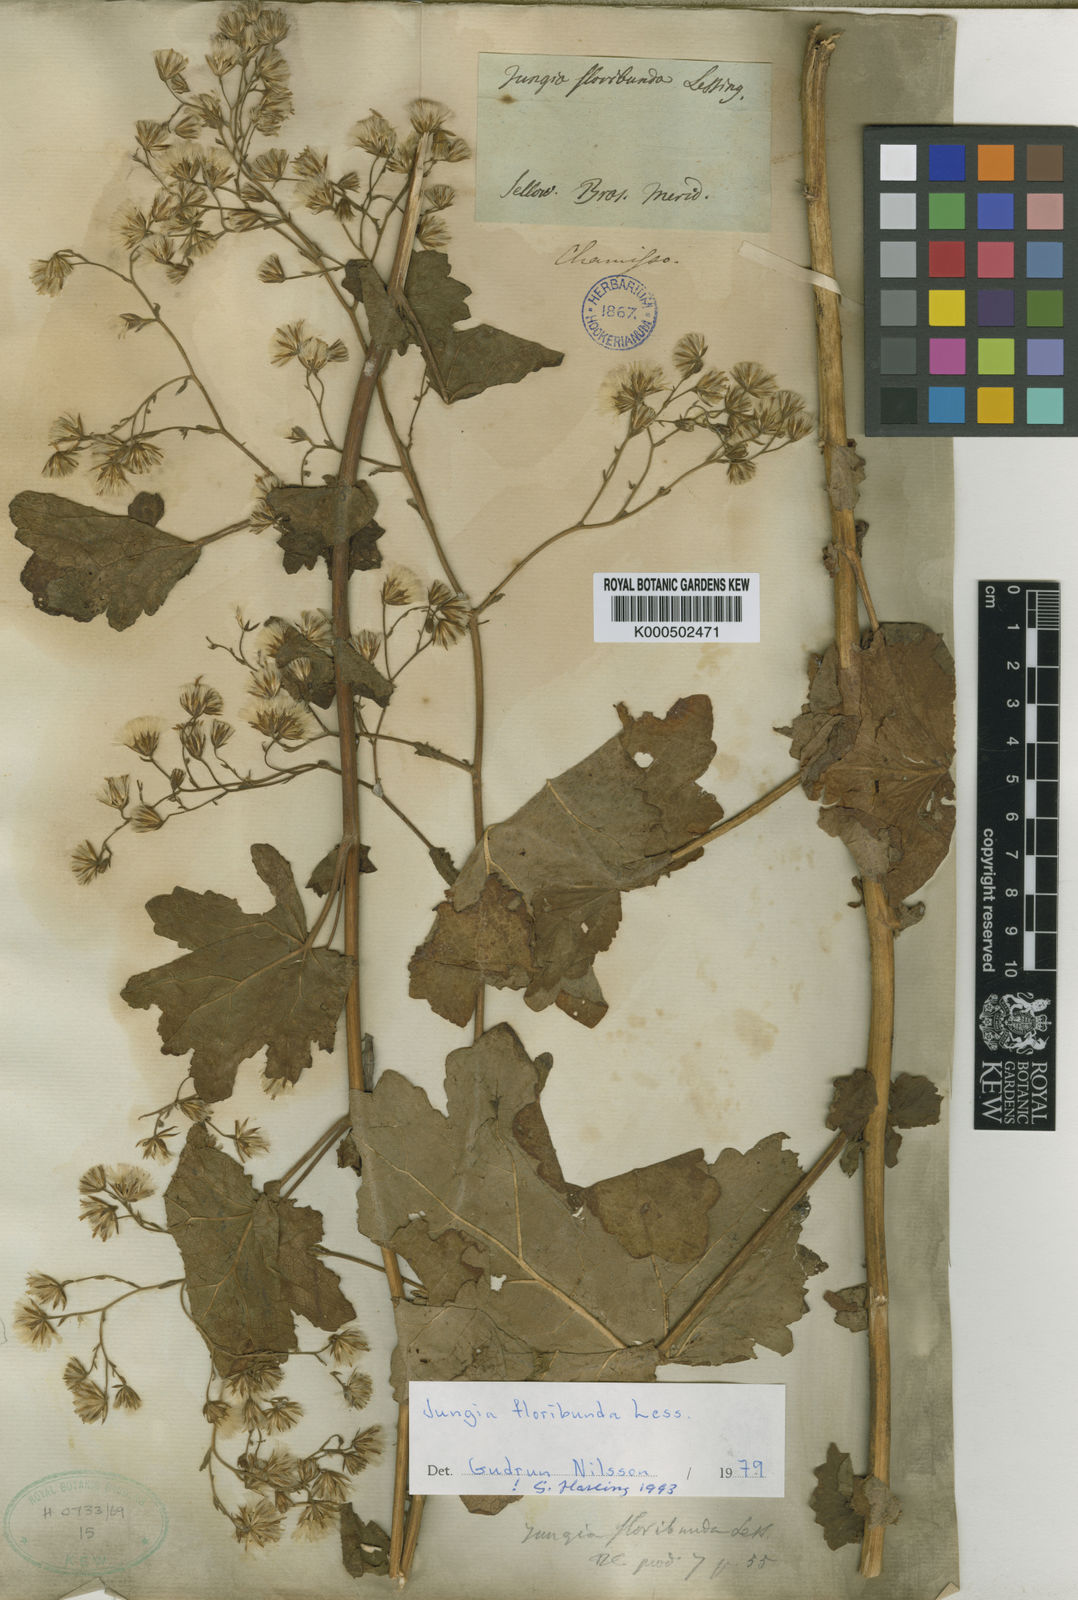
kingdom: Plantae
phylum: Tracheophyta
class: Magnoliopsida
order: Asterales
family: Asteraceae
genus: Jungia
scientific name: Jungia floribunda
